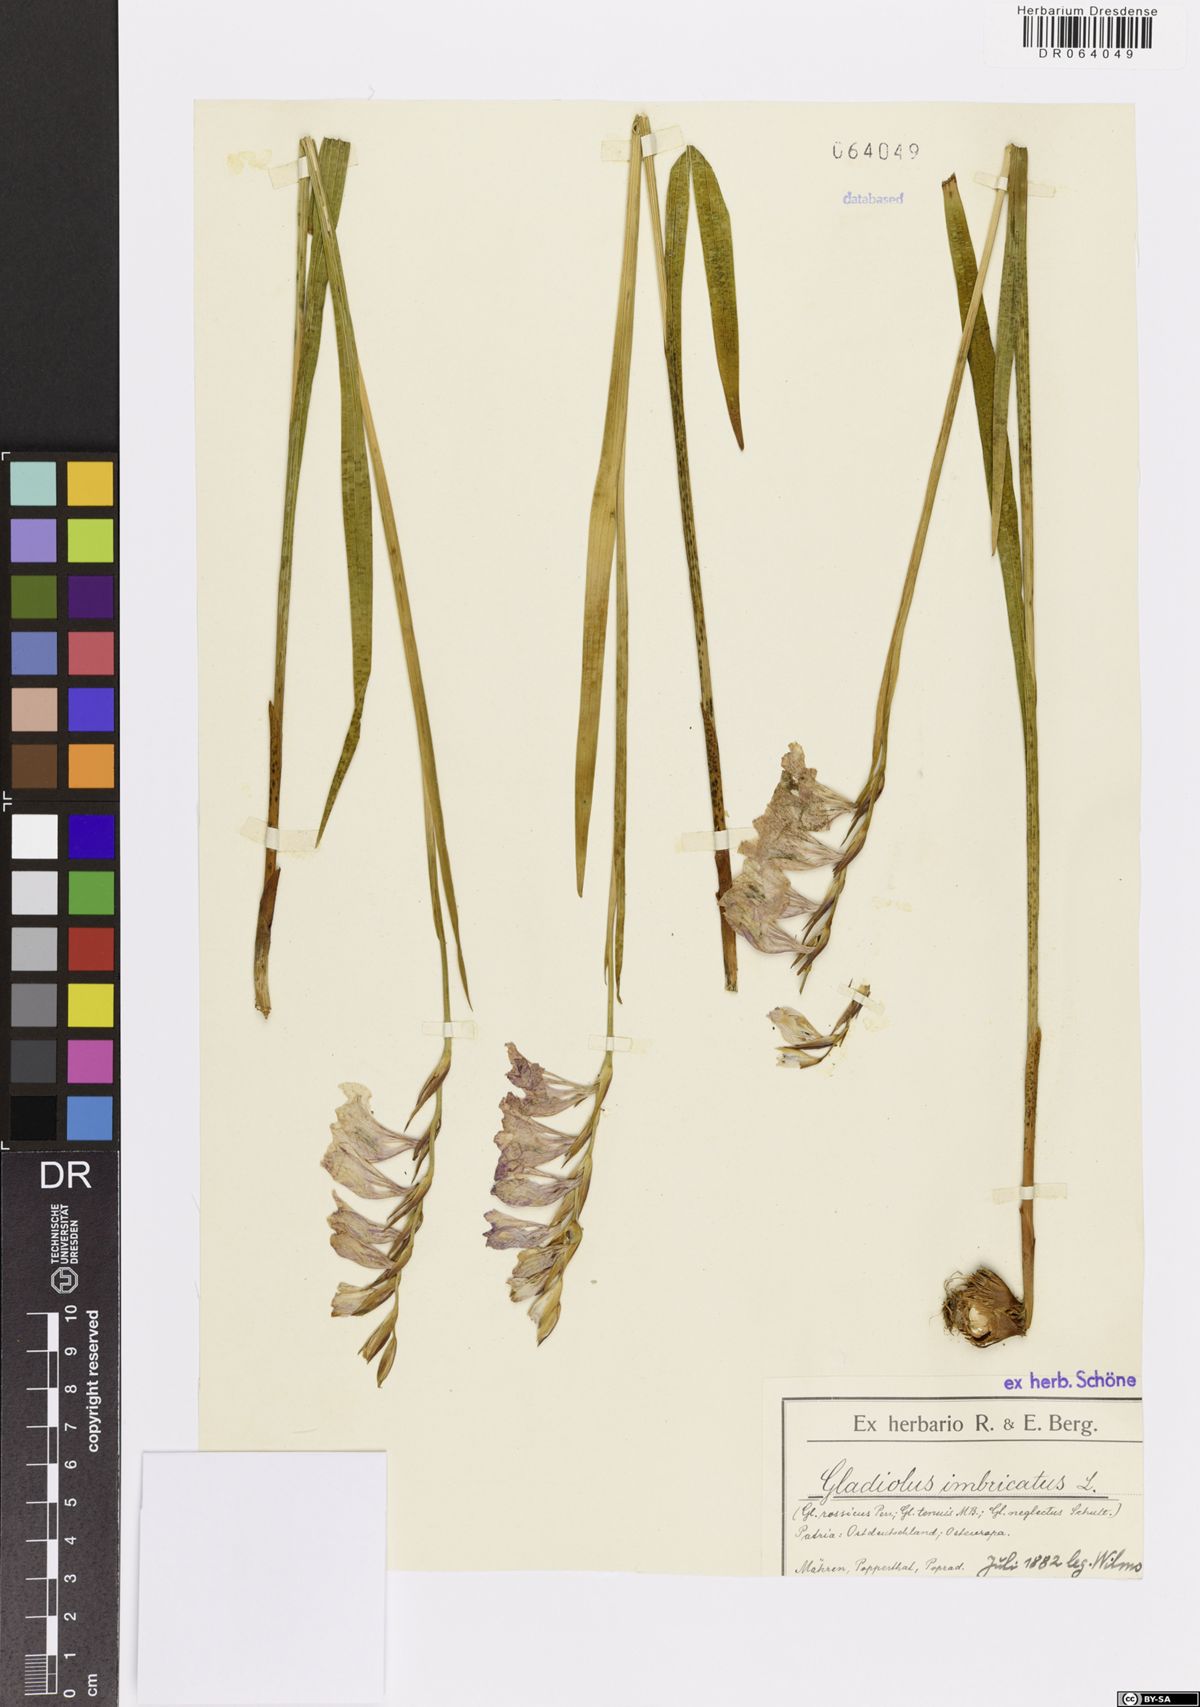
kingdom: Plantae
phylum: Tracheophyta
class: Liliopsida
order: Asparagales
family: Iridaceae
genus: Gladiolus
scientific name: Gladiolus imbricatus
